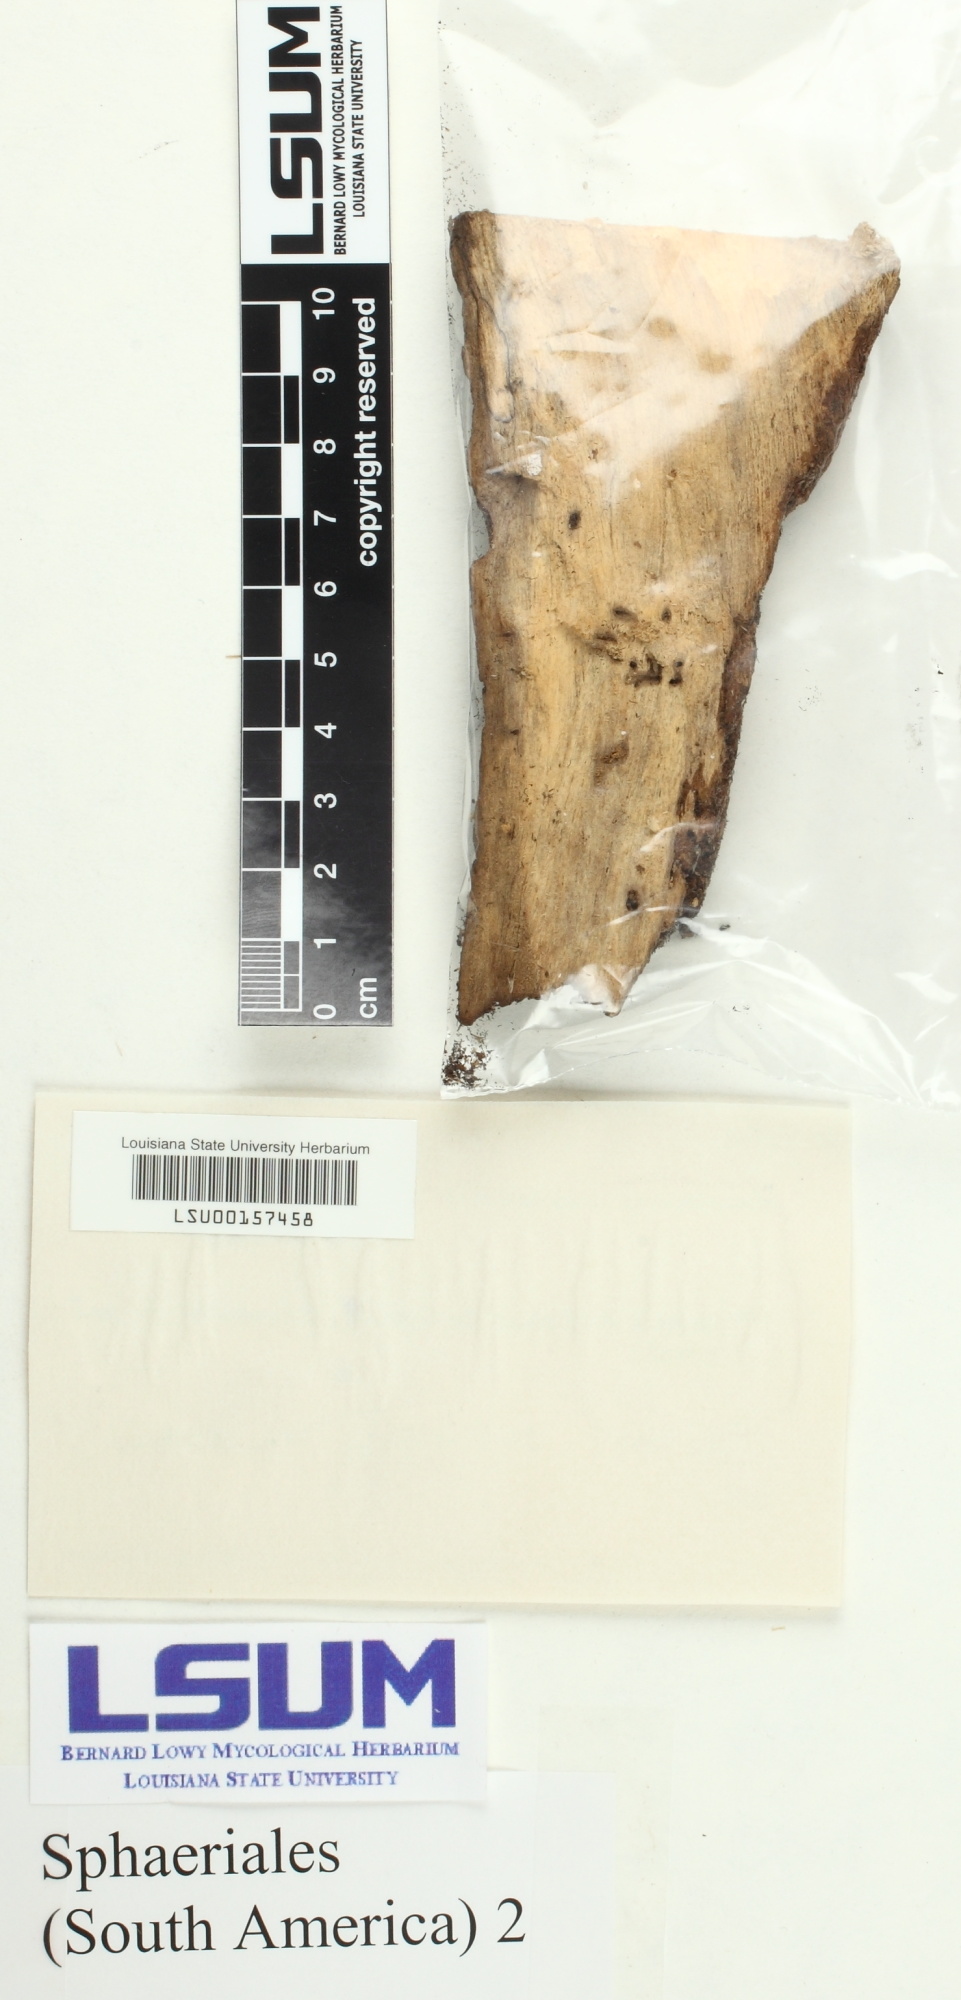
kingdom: Fungi
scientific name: Fungi
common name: Fungi
